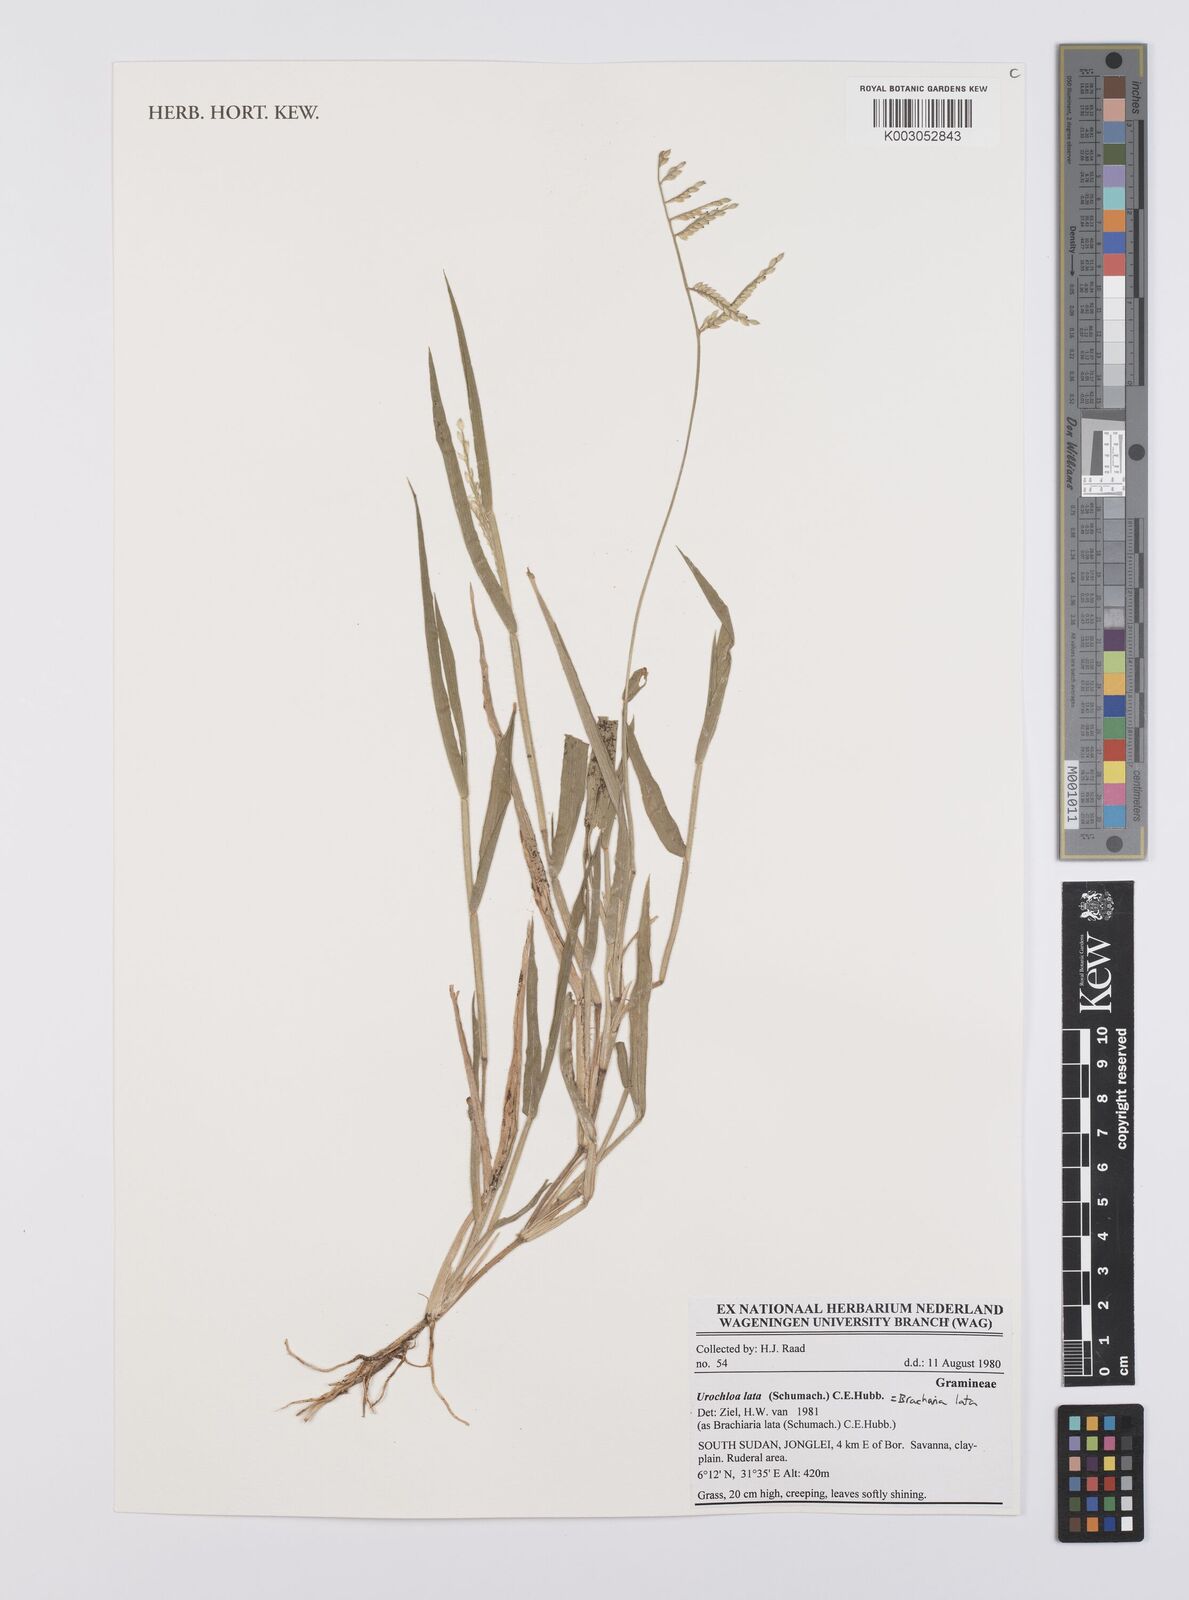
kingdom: Plantae
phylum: Tracheophyta
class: Liliopsida
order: Poales
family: Poaceae
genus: Urochloa
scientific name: Urochloa lata
